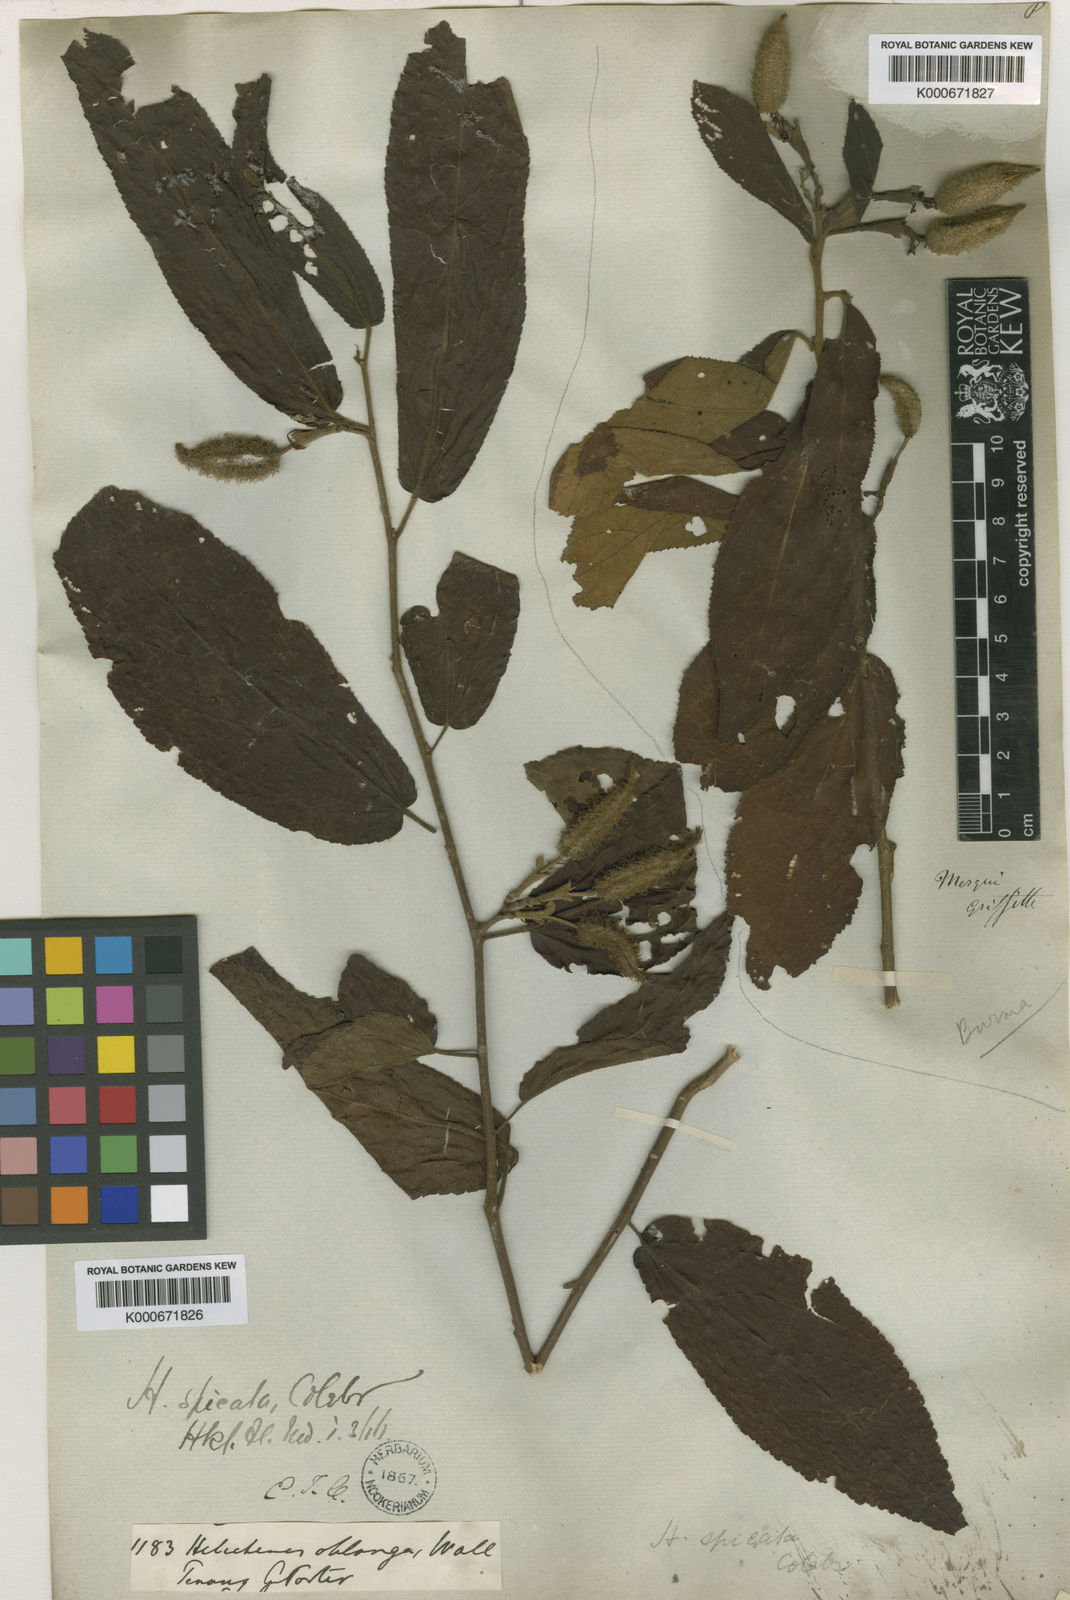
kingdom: Plantae
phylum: Tracheophyta
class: Magnoliopsida
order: Malvales
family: Malvaceae
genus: Helicteres
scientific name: Helicteres viscida
